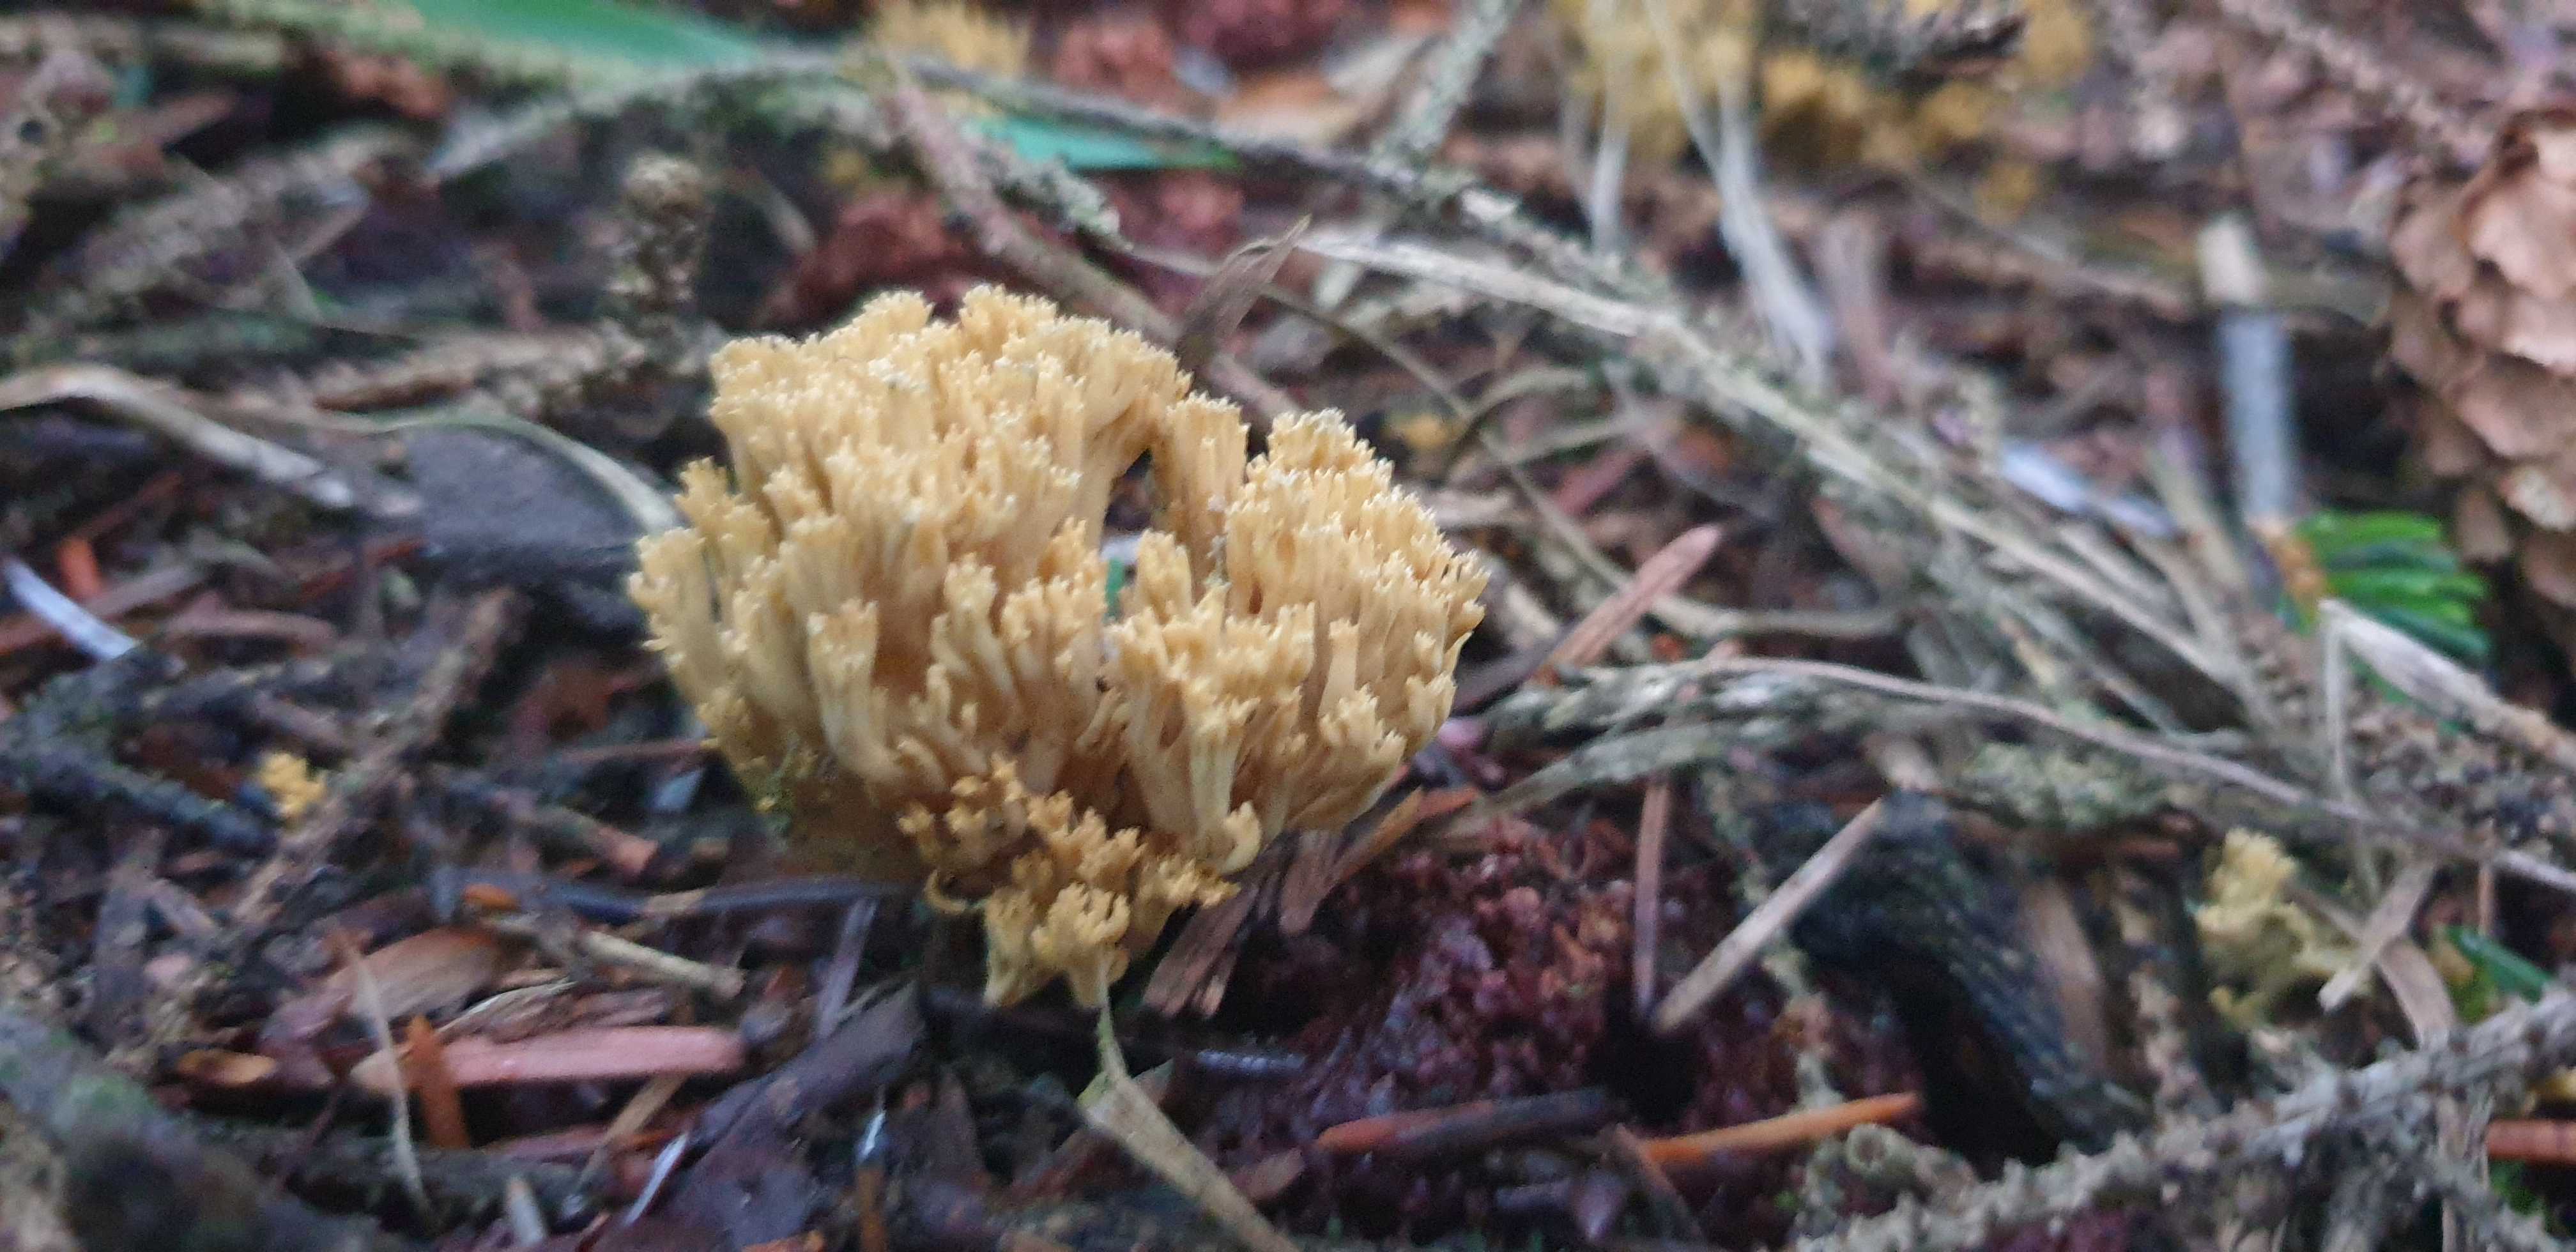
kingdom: Fungi
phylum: Basidiomycota
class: Agaricomycetes
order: Gomphales
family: Gomphaceae
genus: Phaeoclavulina
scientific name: Phaeoclavulina eumorpha
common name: gran-koralsvamp
